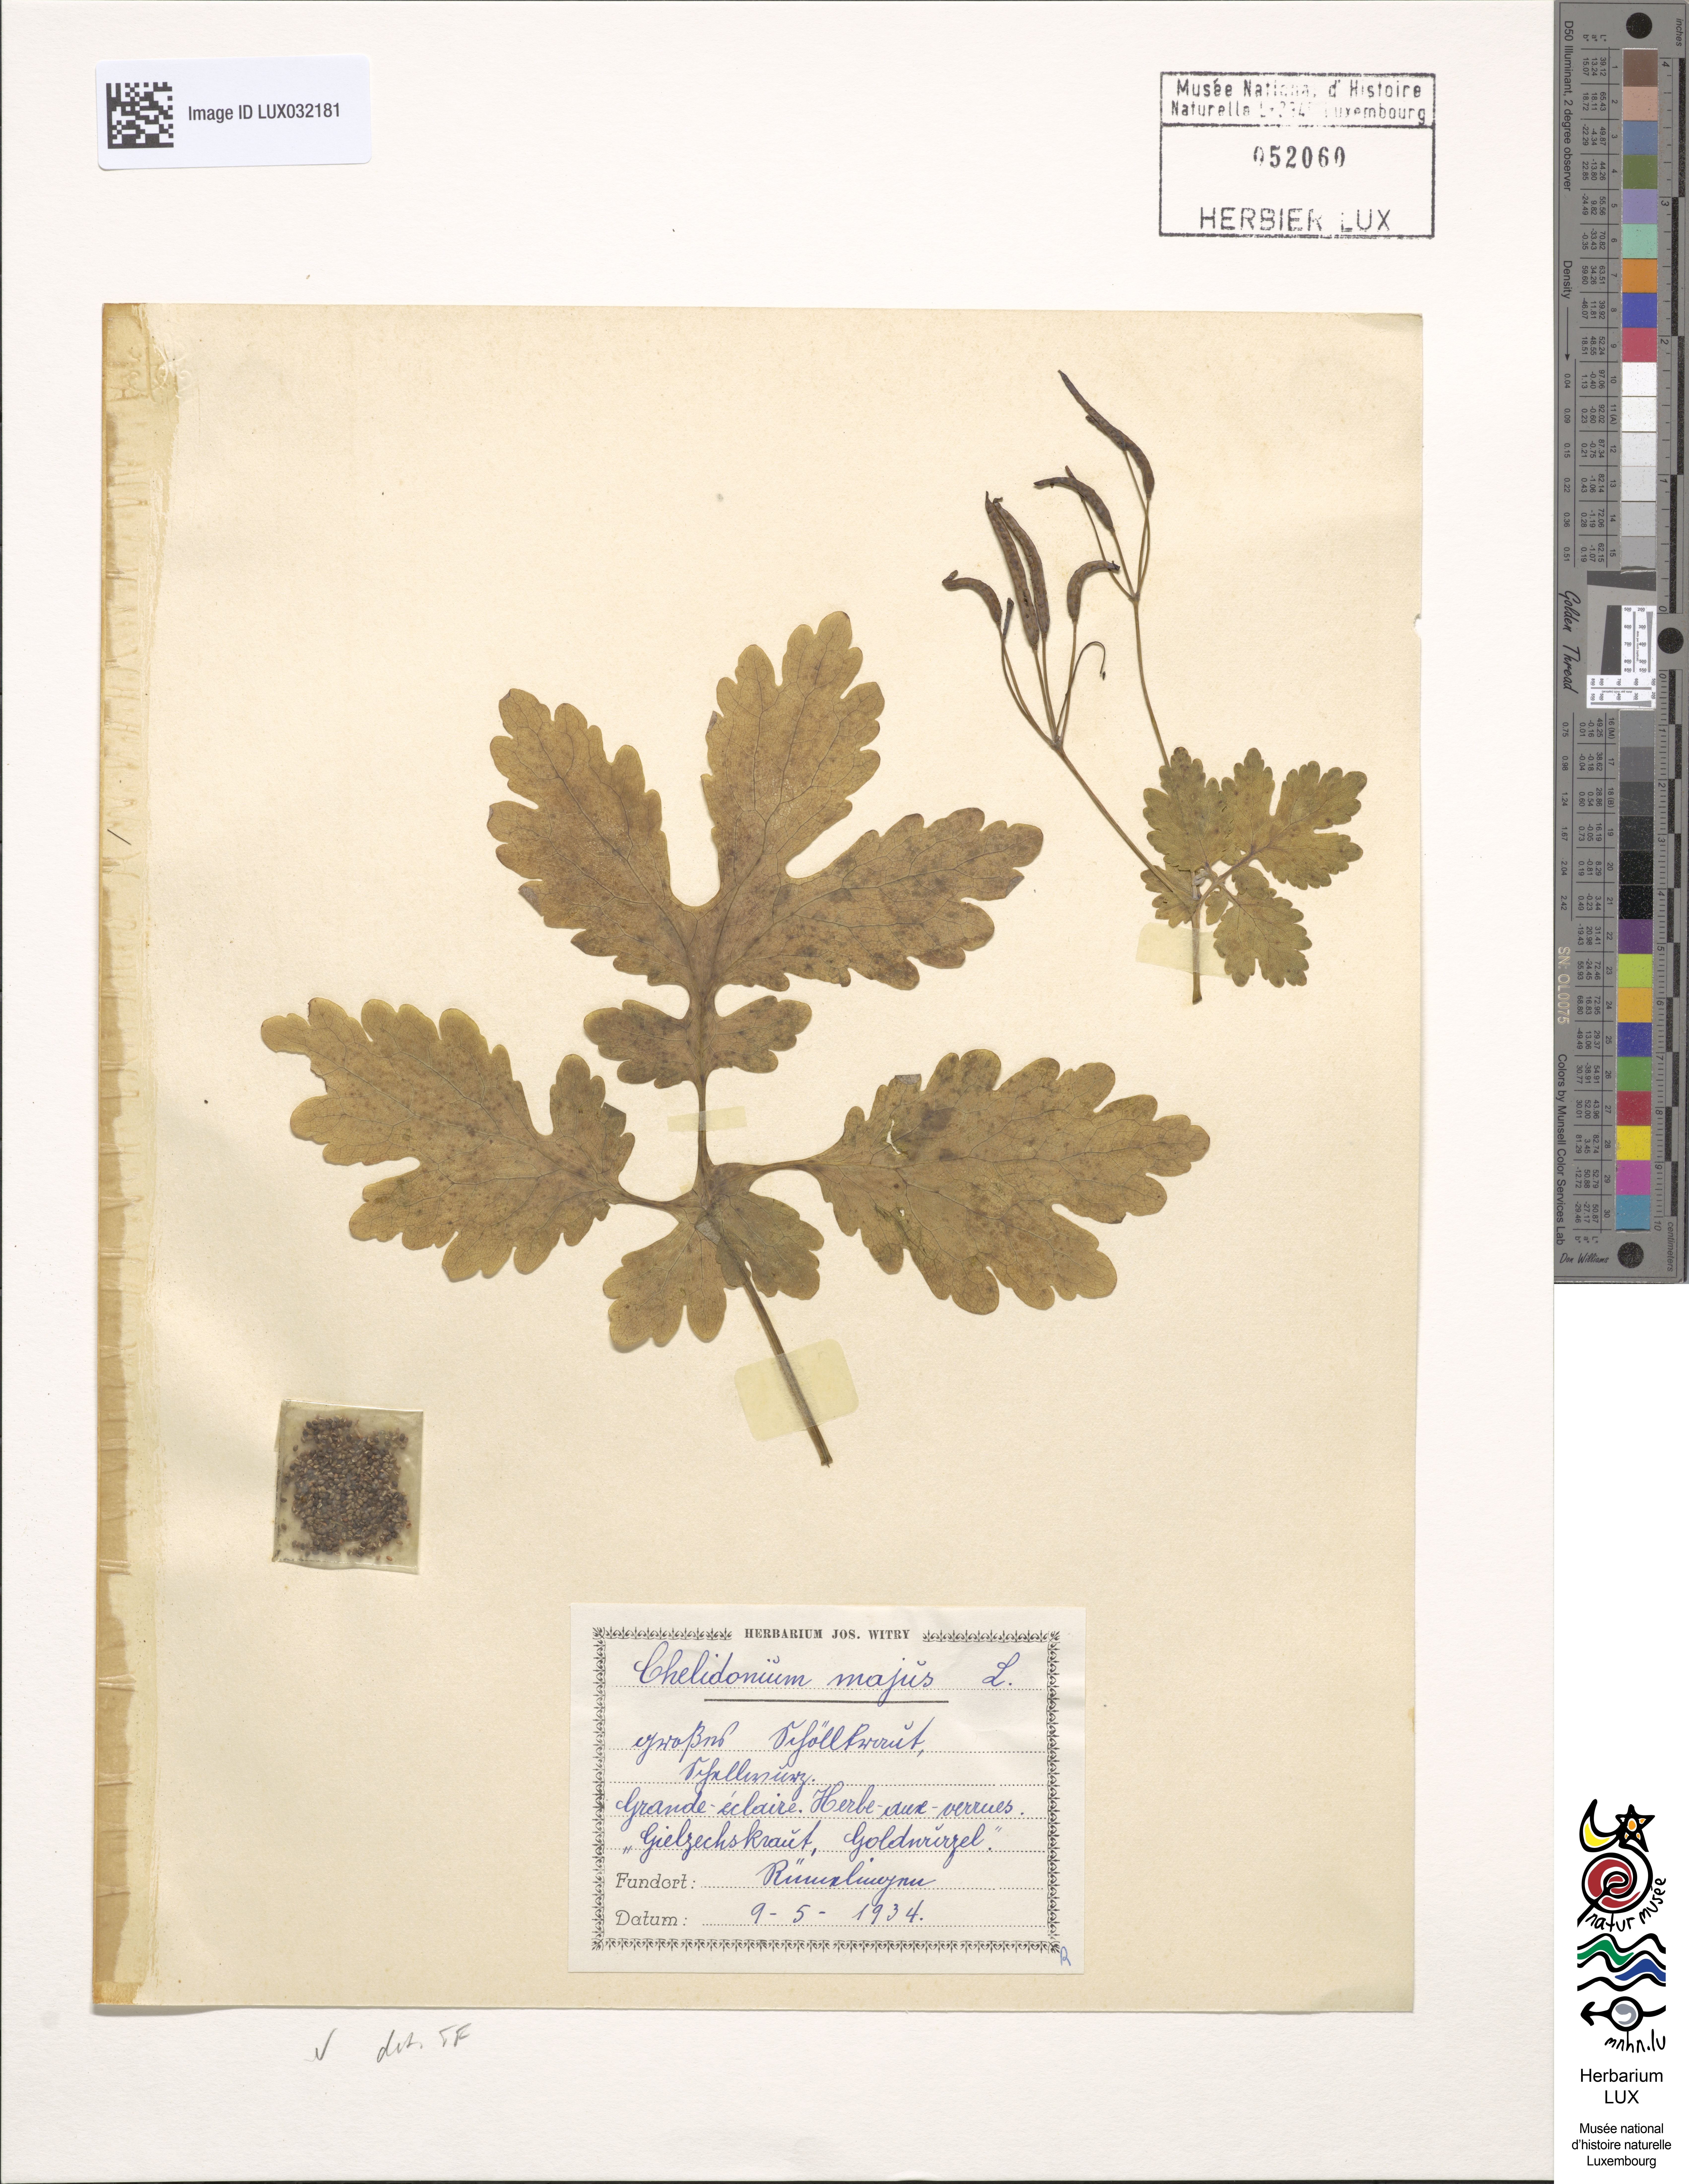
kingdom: Plantae
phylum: Tracheophyta
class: Magnoliopsida
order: Ranunculales
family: Papaveraceae
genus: Chelidonium
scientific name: Chelidonium majus
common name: Greater celandine
